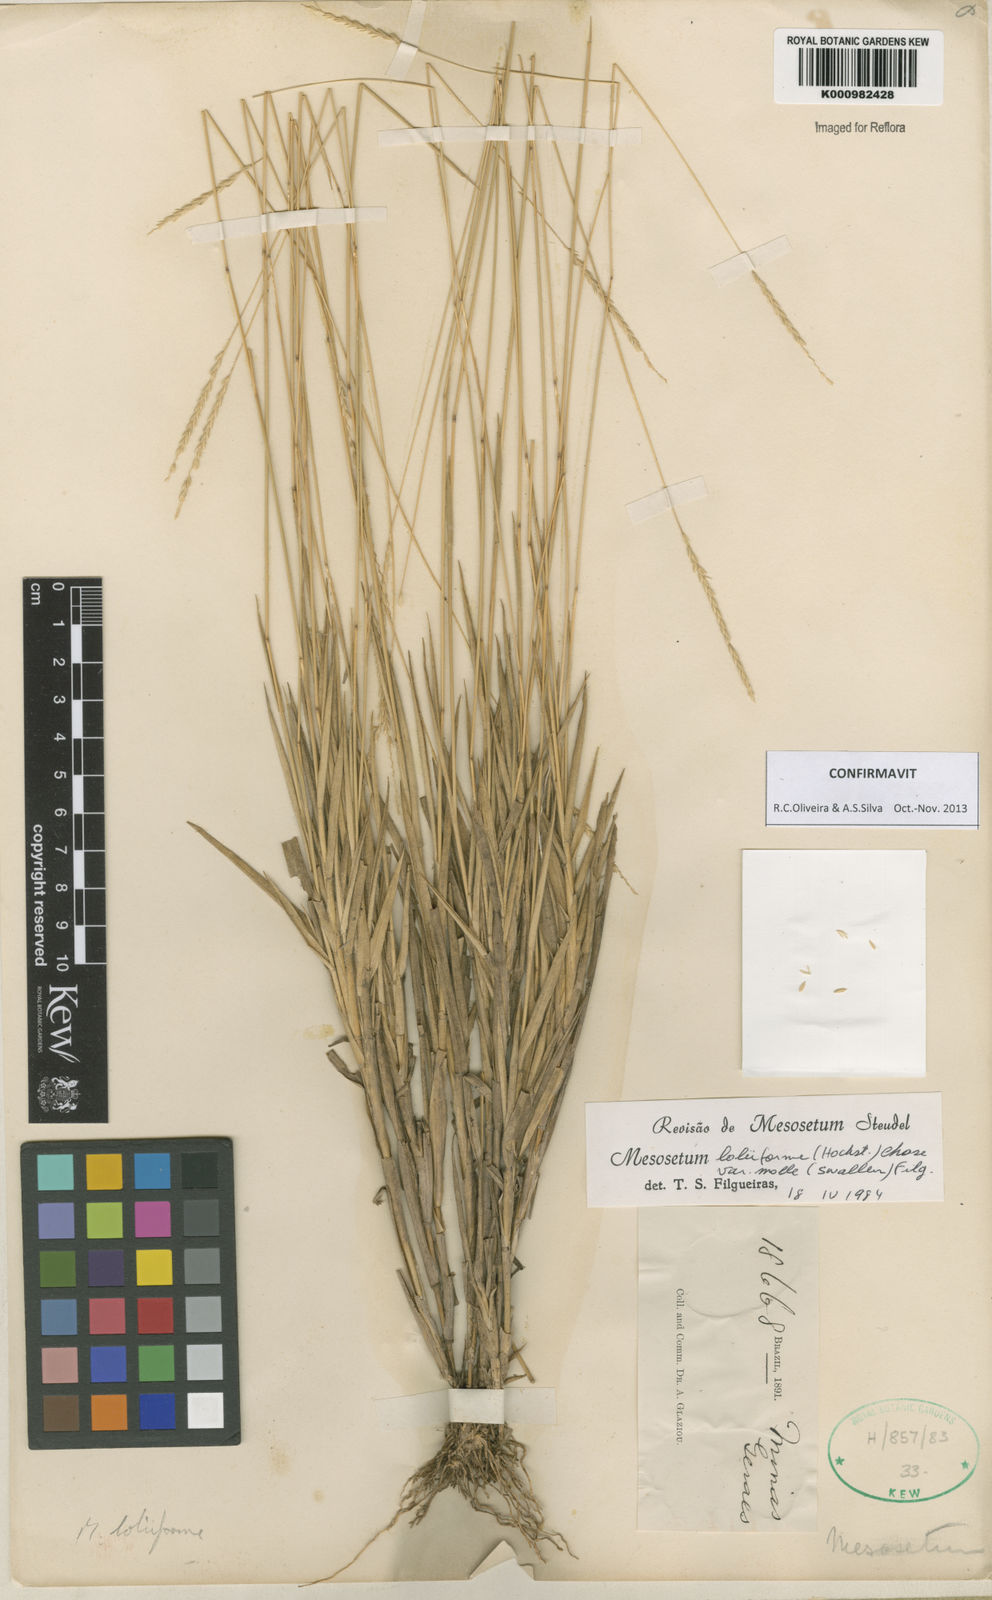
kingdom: Plantae
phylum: Tracheophyta
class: Liliopsida
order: Poales
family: Poaceae
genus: Mesosetum
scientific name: Mesosetum
